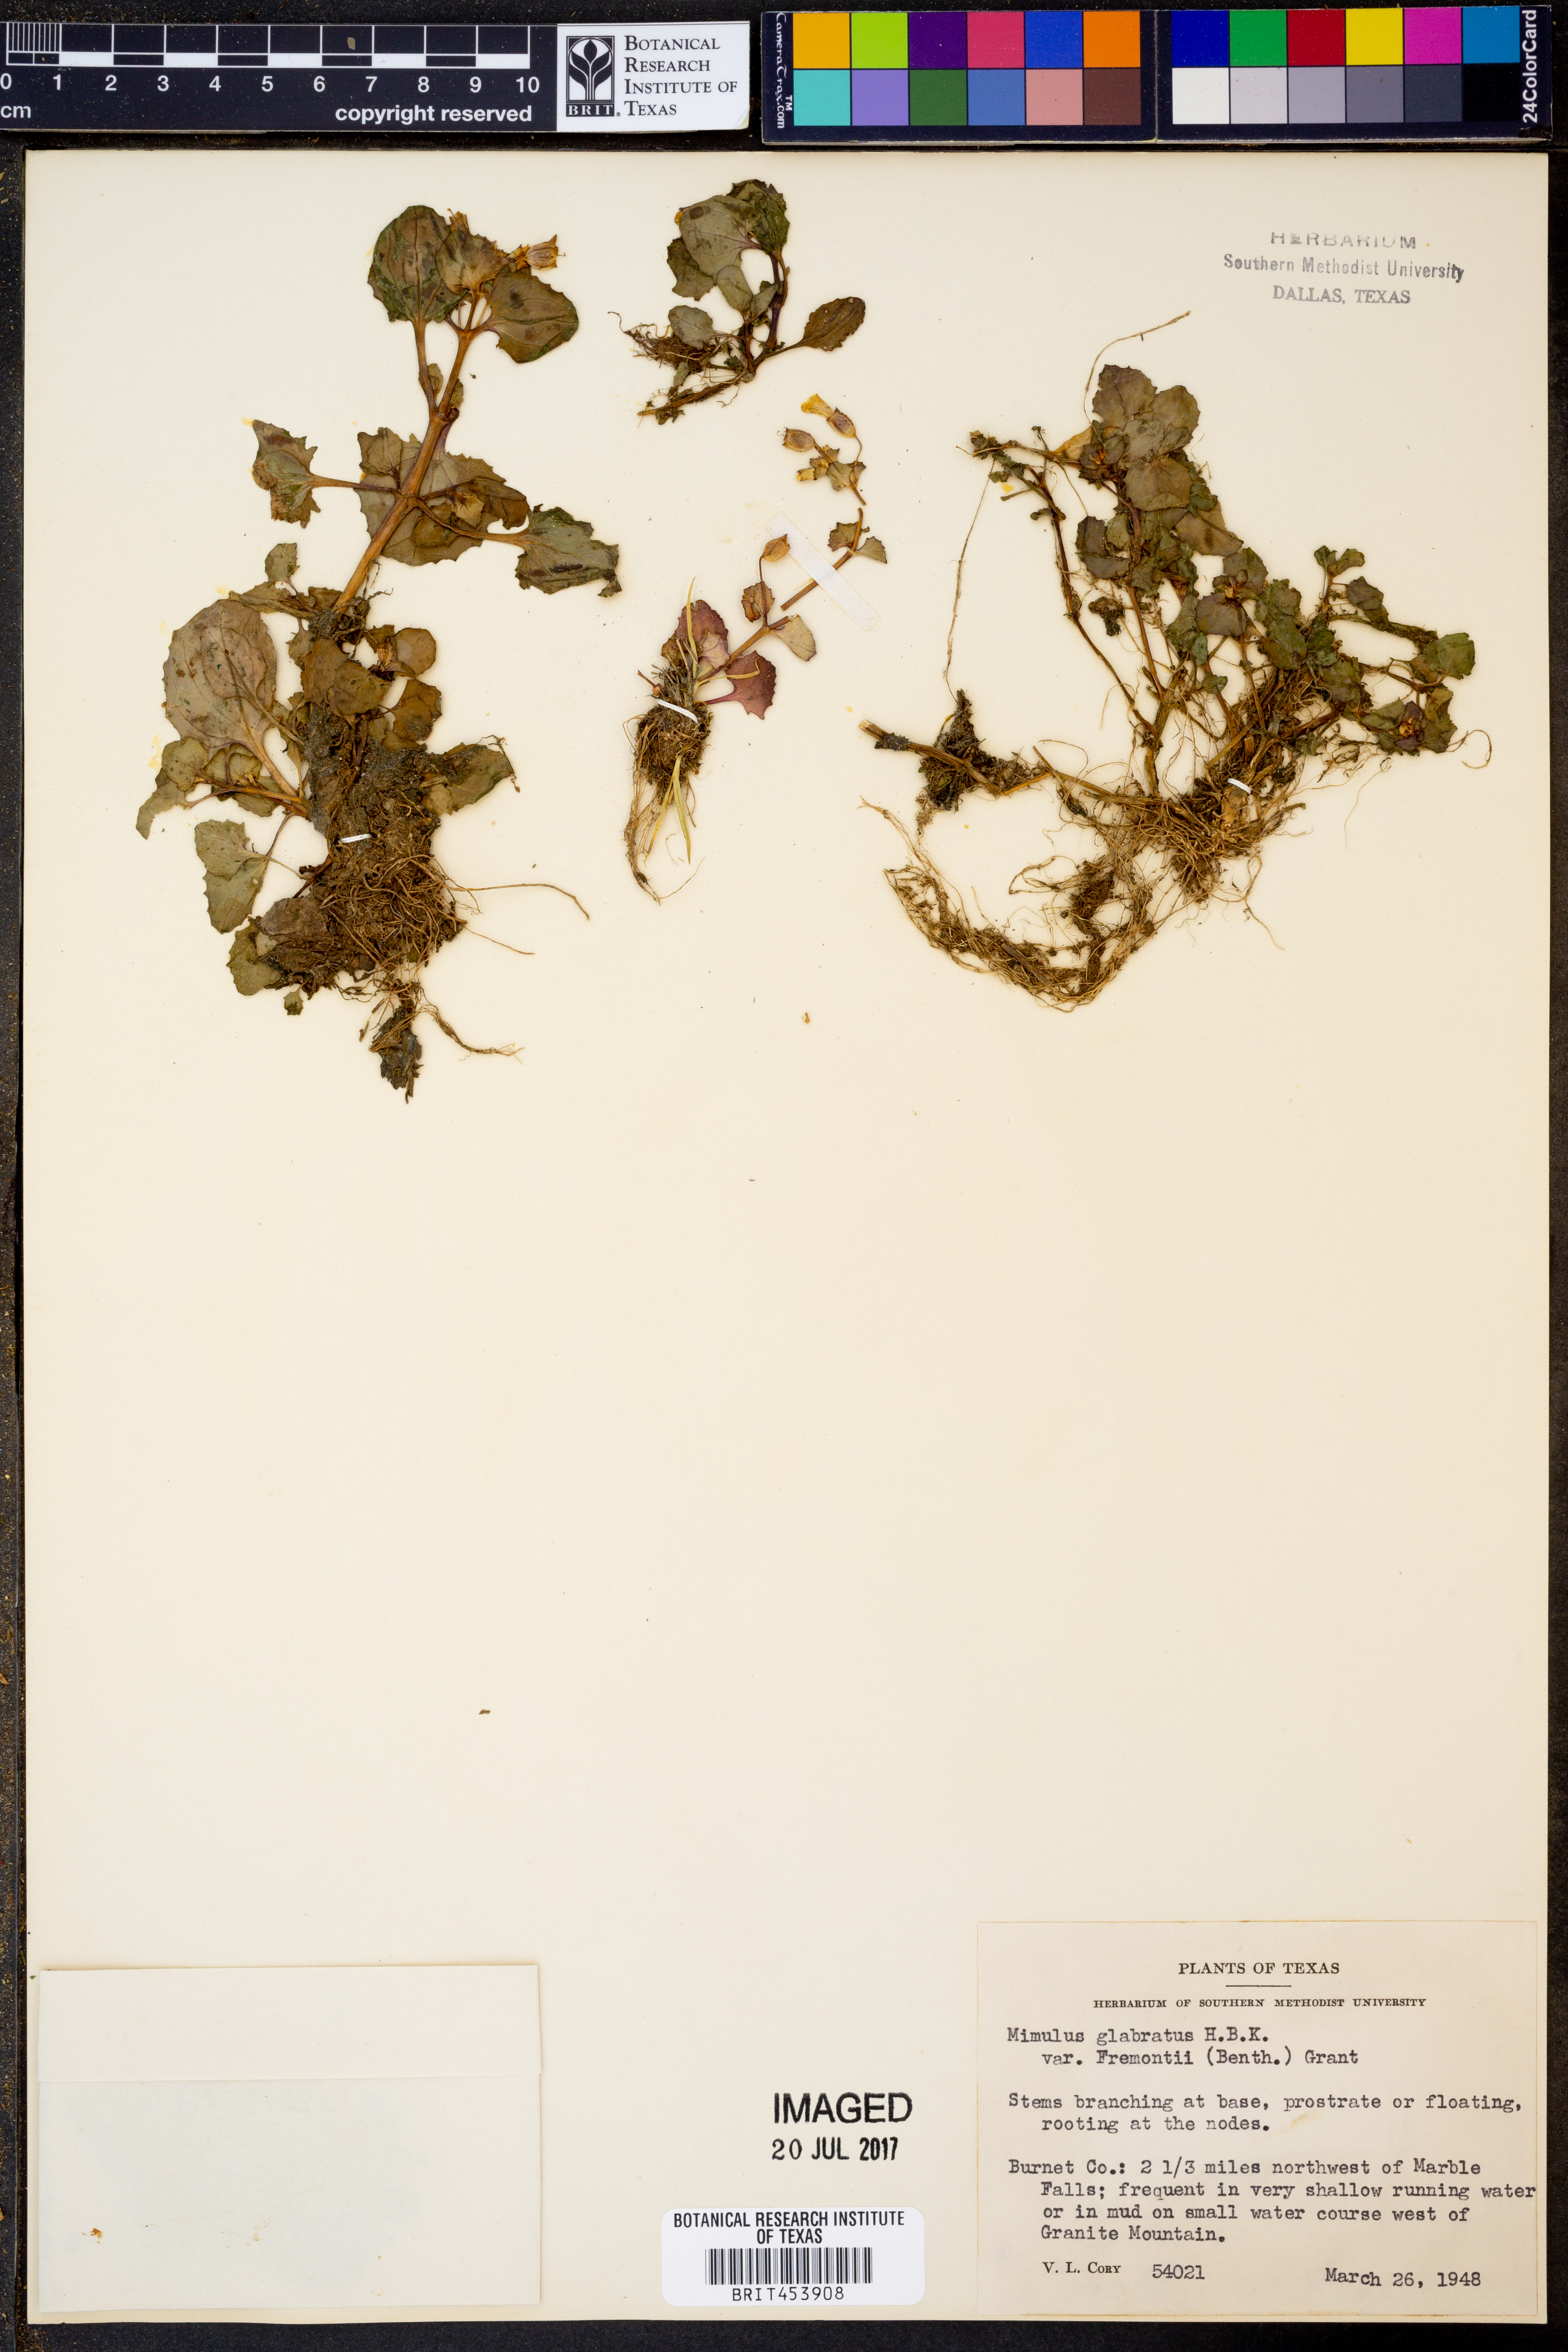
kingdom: Plantae
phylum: Tracheophyta
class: Magnoliopsida
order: Lamiales
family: Phrymaceae
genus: Erythranthe
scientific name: Erythranthe geyeri
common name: Geyer's monkeyflower
